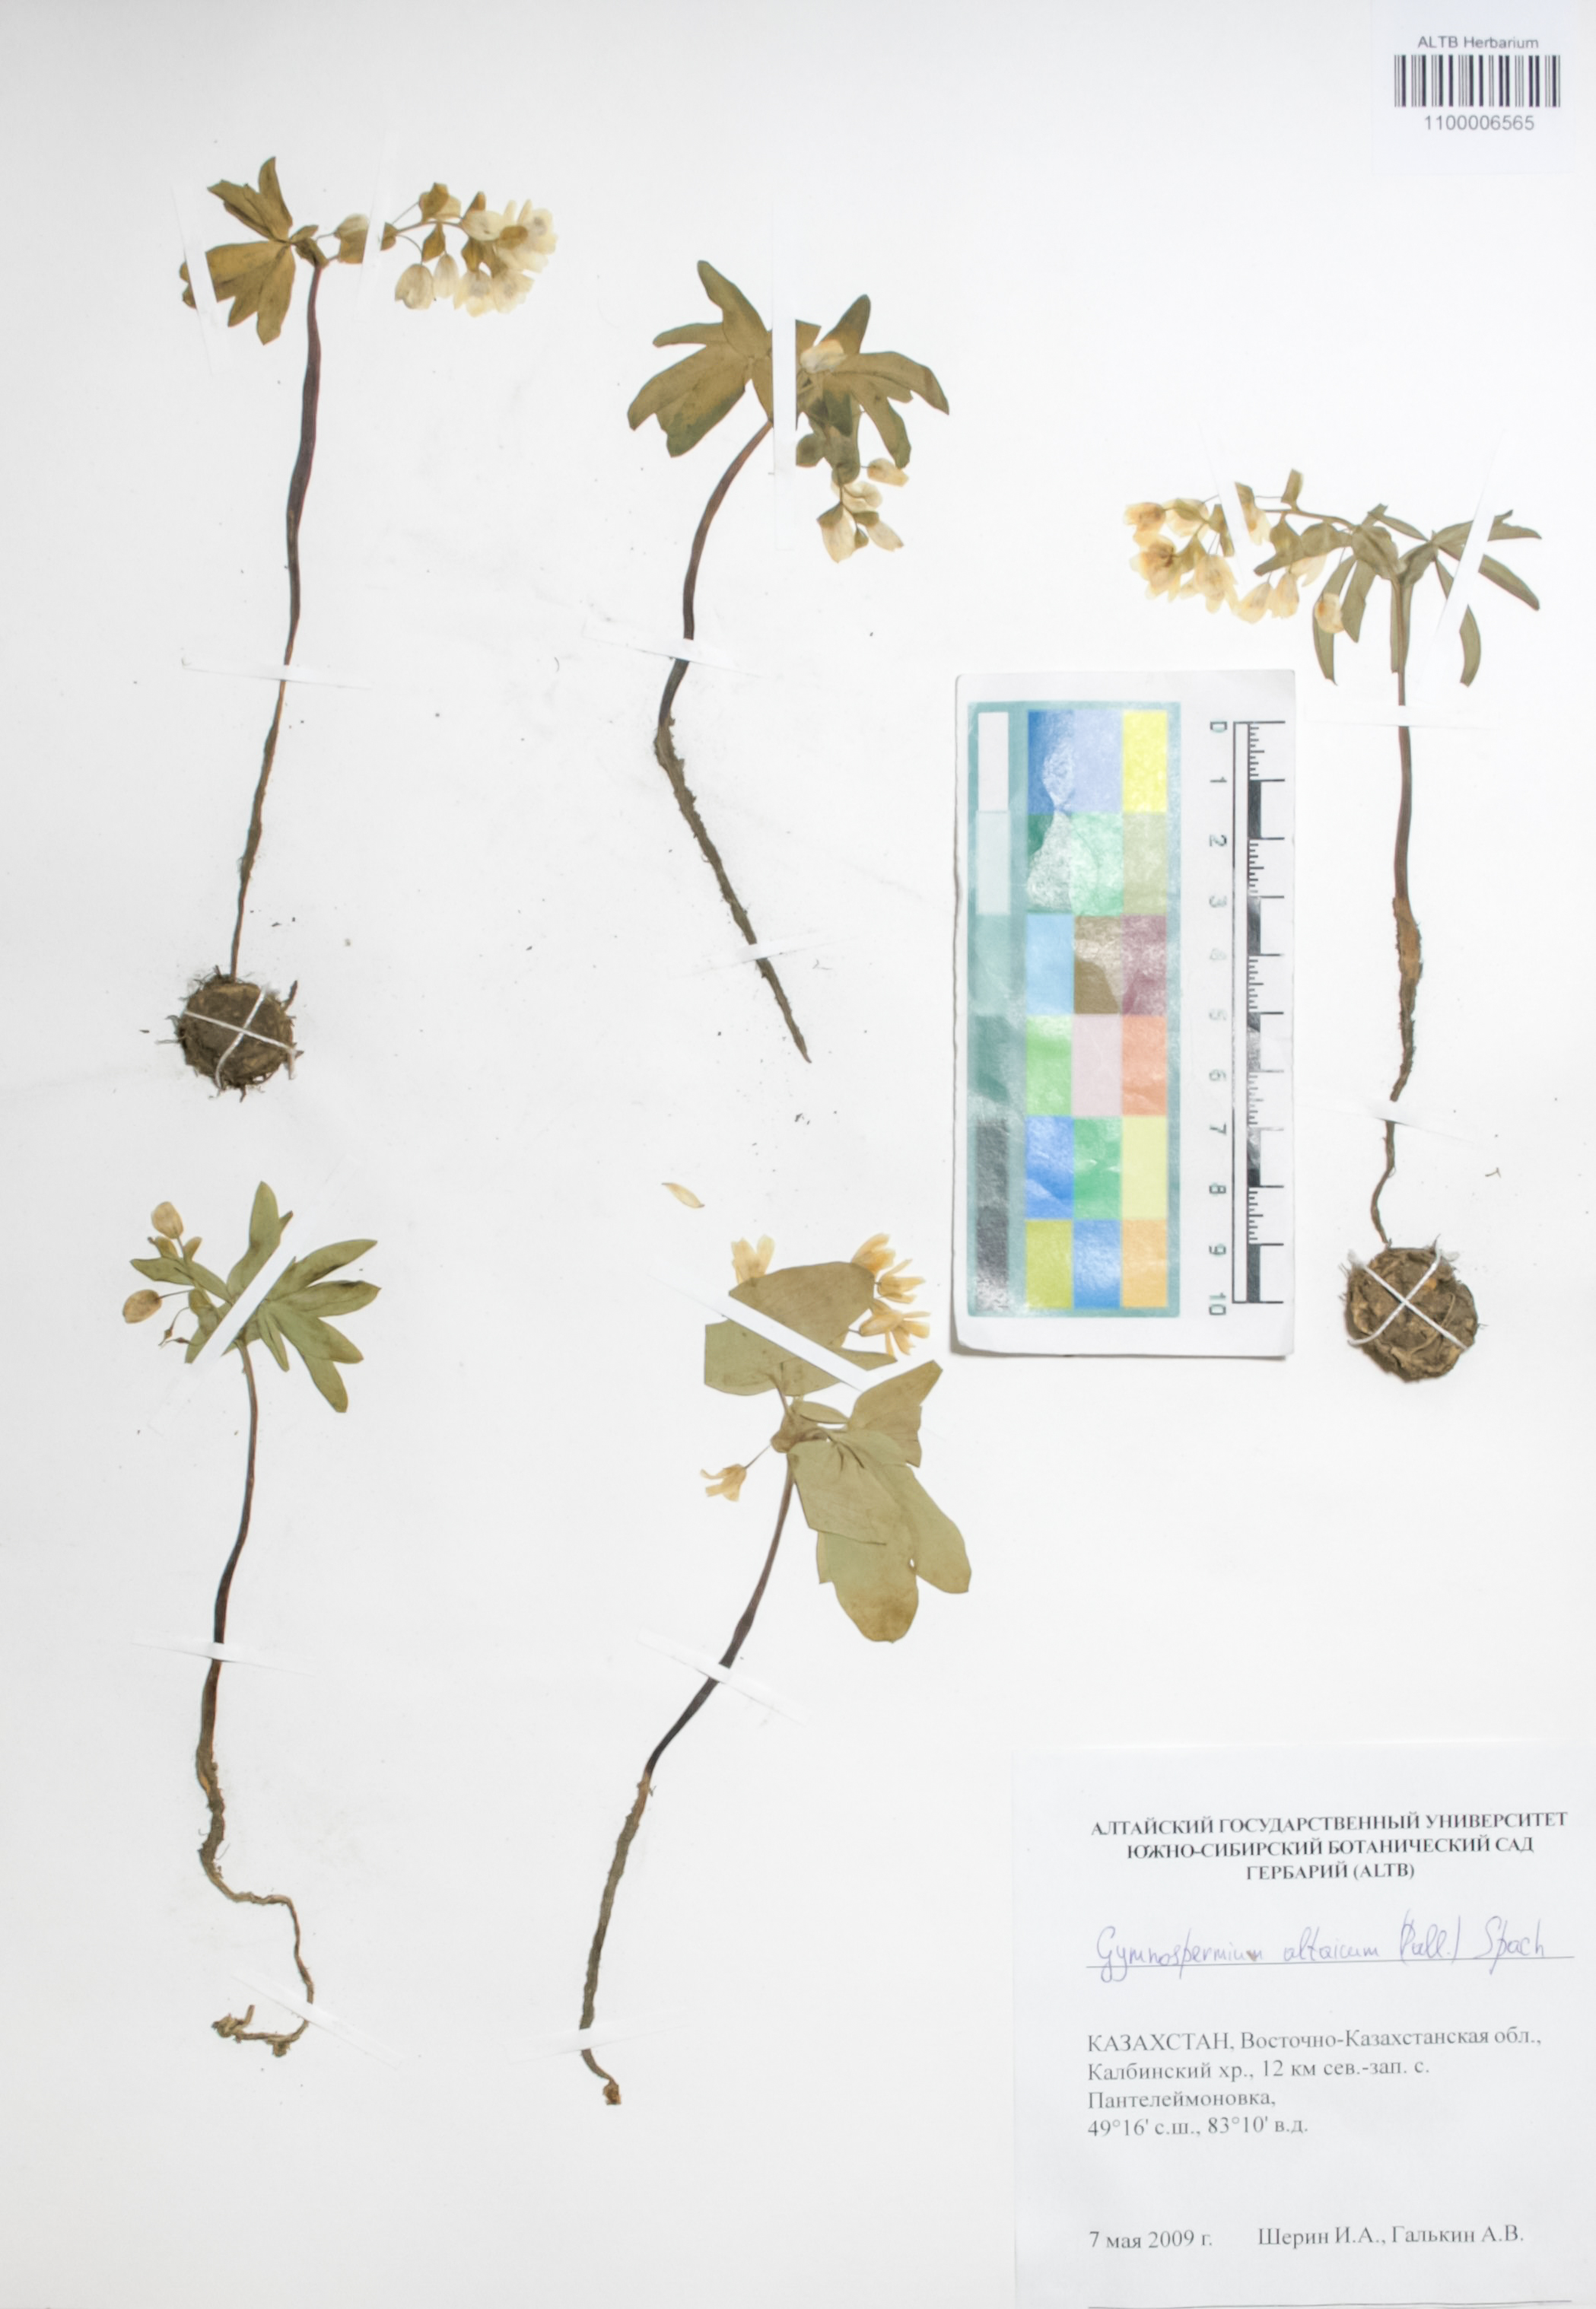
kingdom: Plantae
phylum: Tracheophyta
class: Magnoliopsida
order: Ranunculales
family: Berberidaceae
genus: Gymnospermium
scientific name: Gymnospermium altaicum
